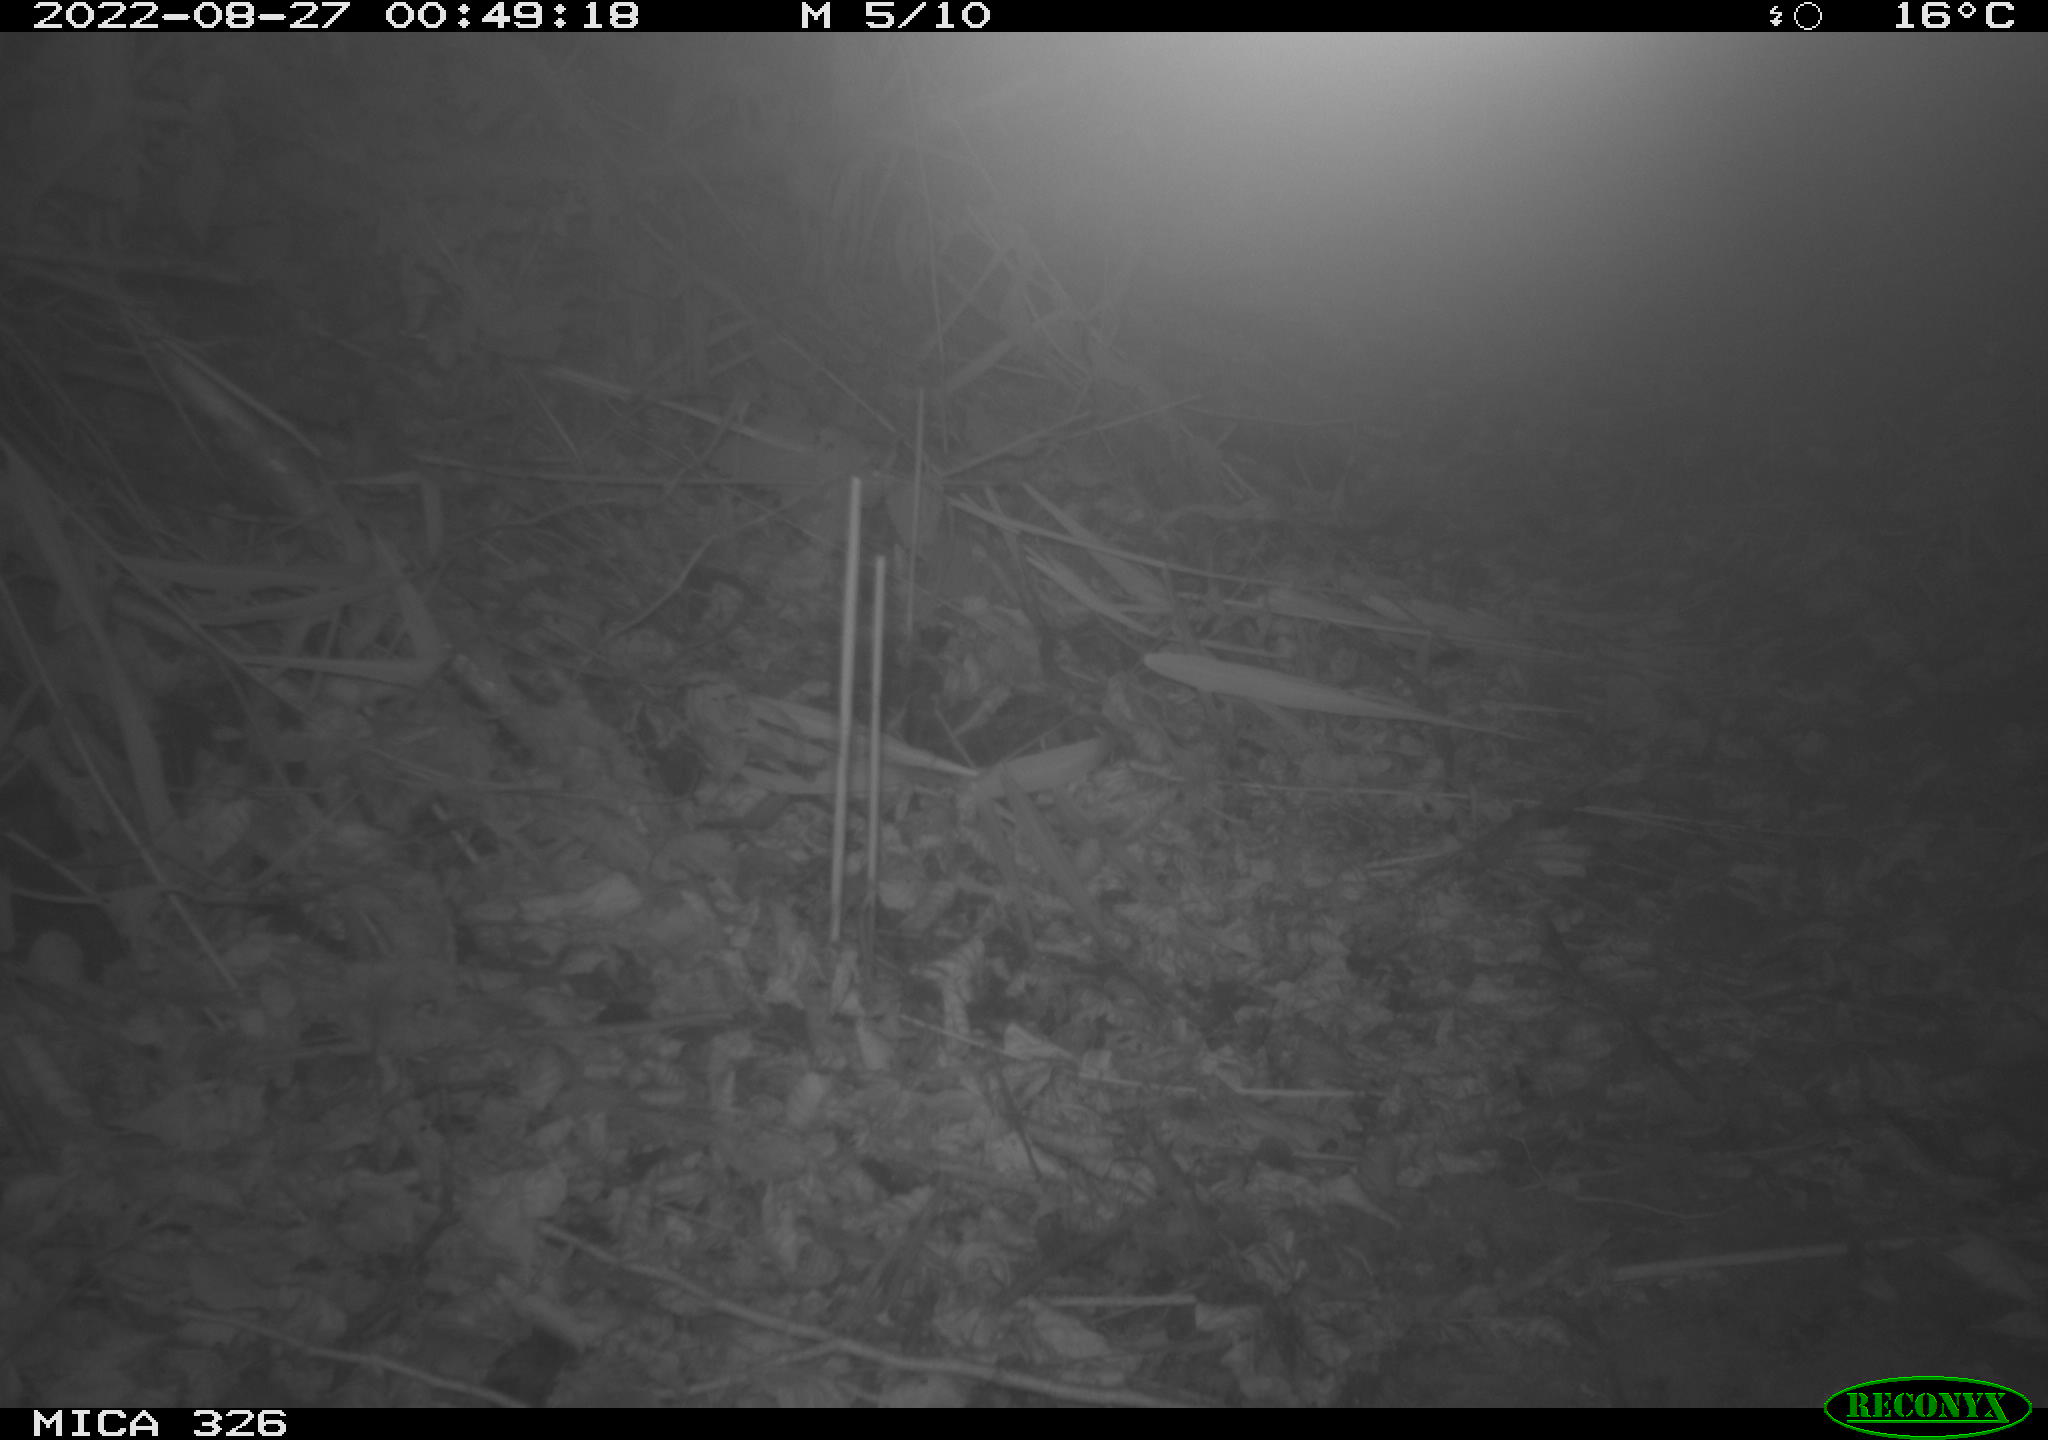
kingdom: Animalia
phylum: Chordata
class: Mammalia
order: Rodentia
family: Myocastoridae
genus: Myocastor
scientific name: Myocastor coypus
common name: Coypu
